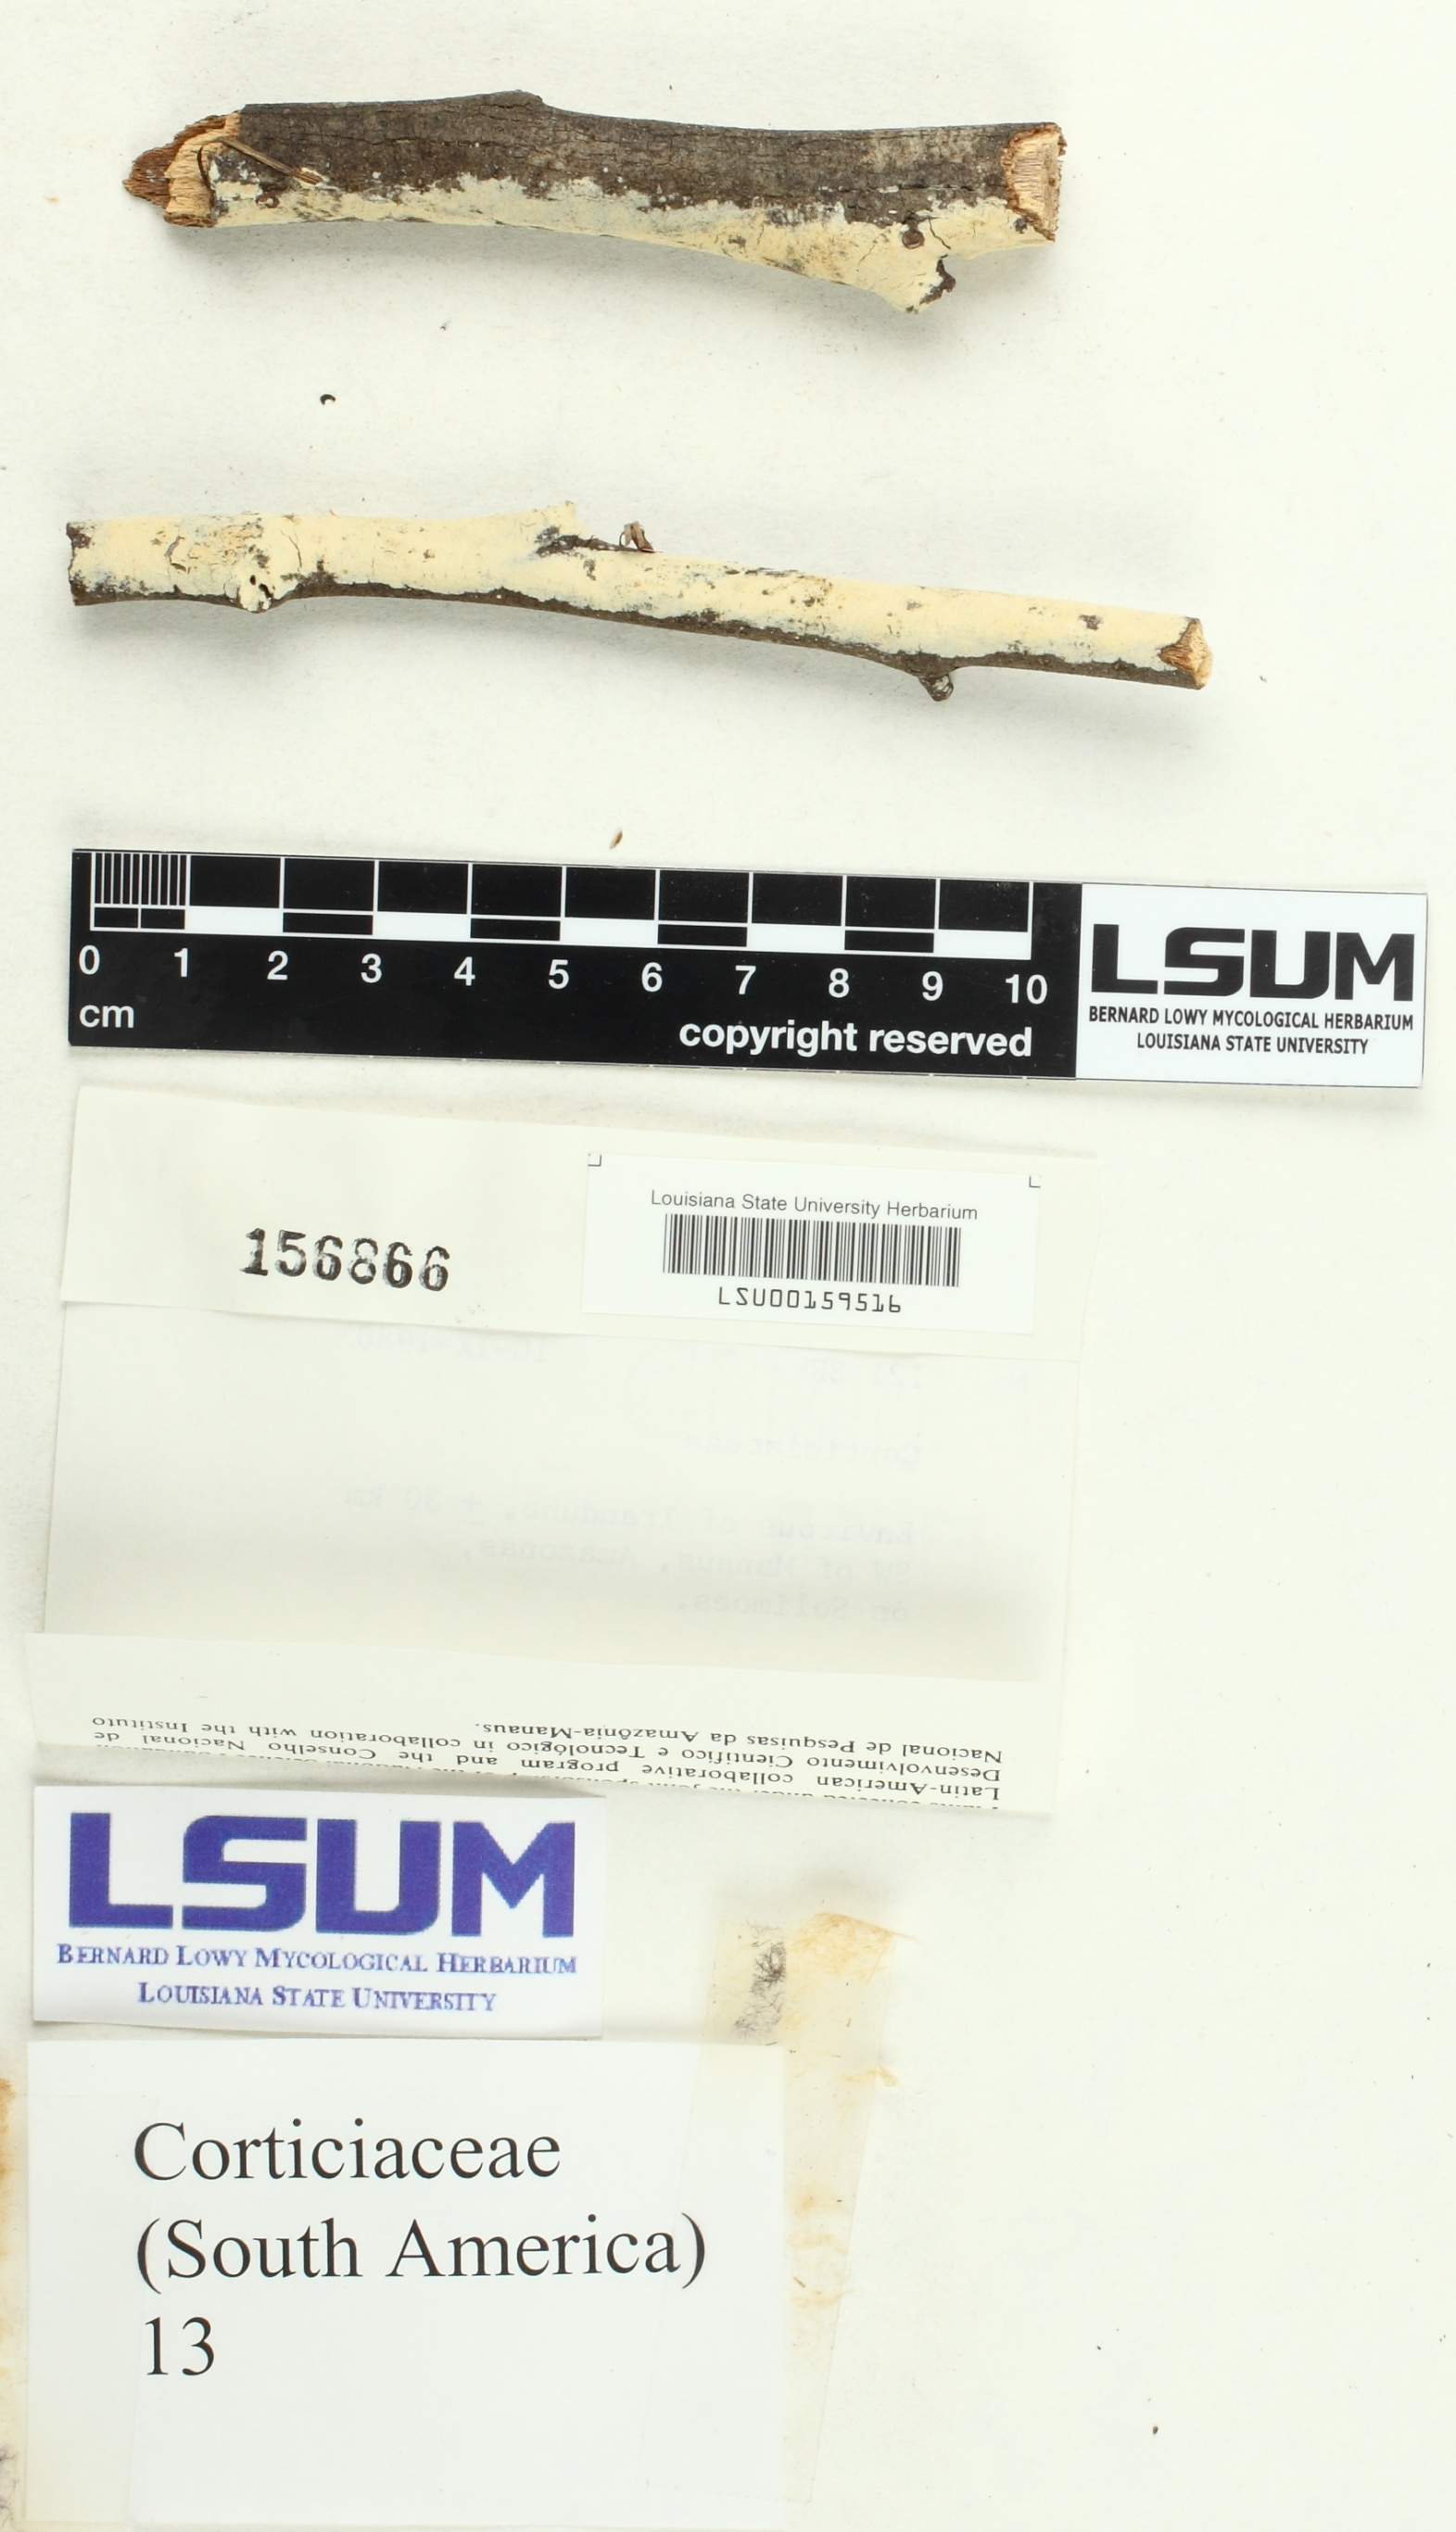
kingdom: Fungi
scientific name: Fungi
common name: Fungi
